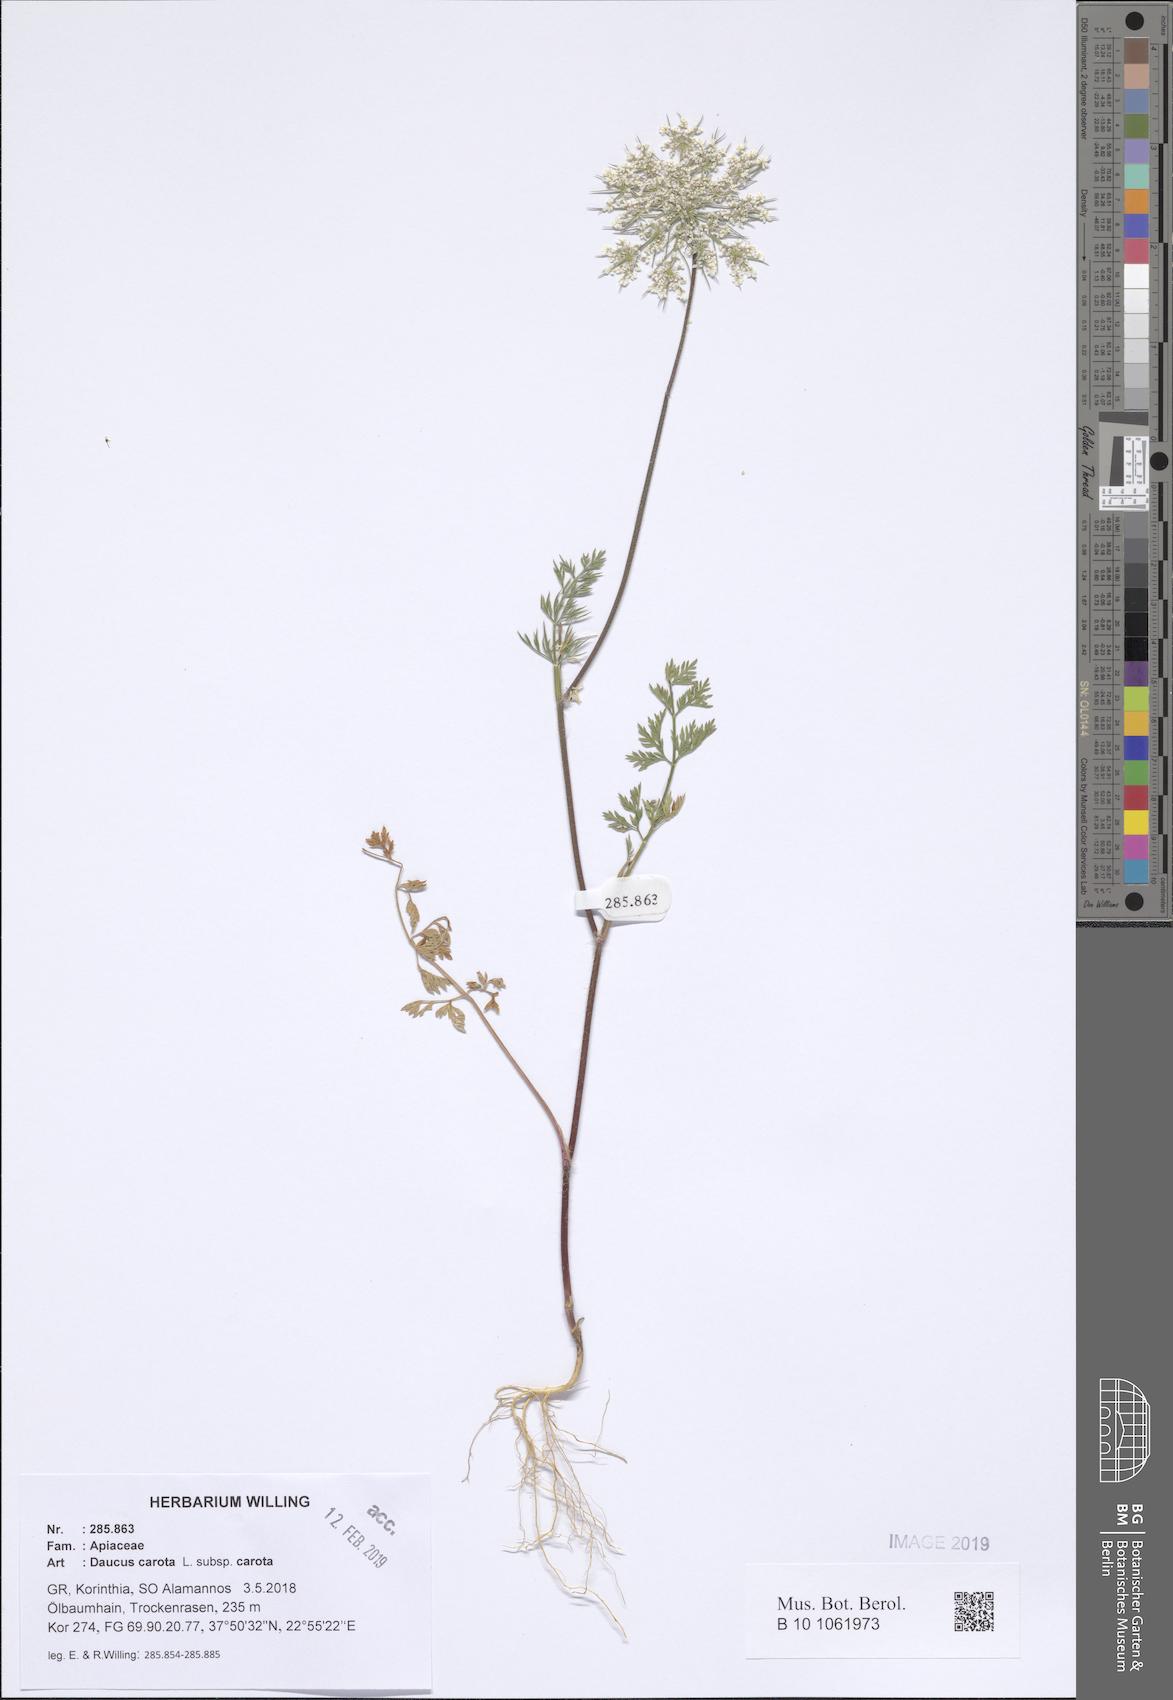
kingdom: Plantae
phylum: Tracheophyta
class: Magnoliopsida
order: Apiales
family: Apiaceae
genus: Daucus
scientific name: Daucus carota
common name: Wild carrot
